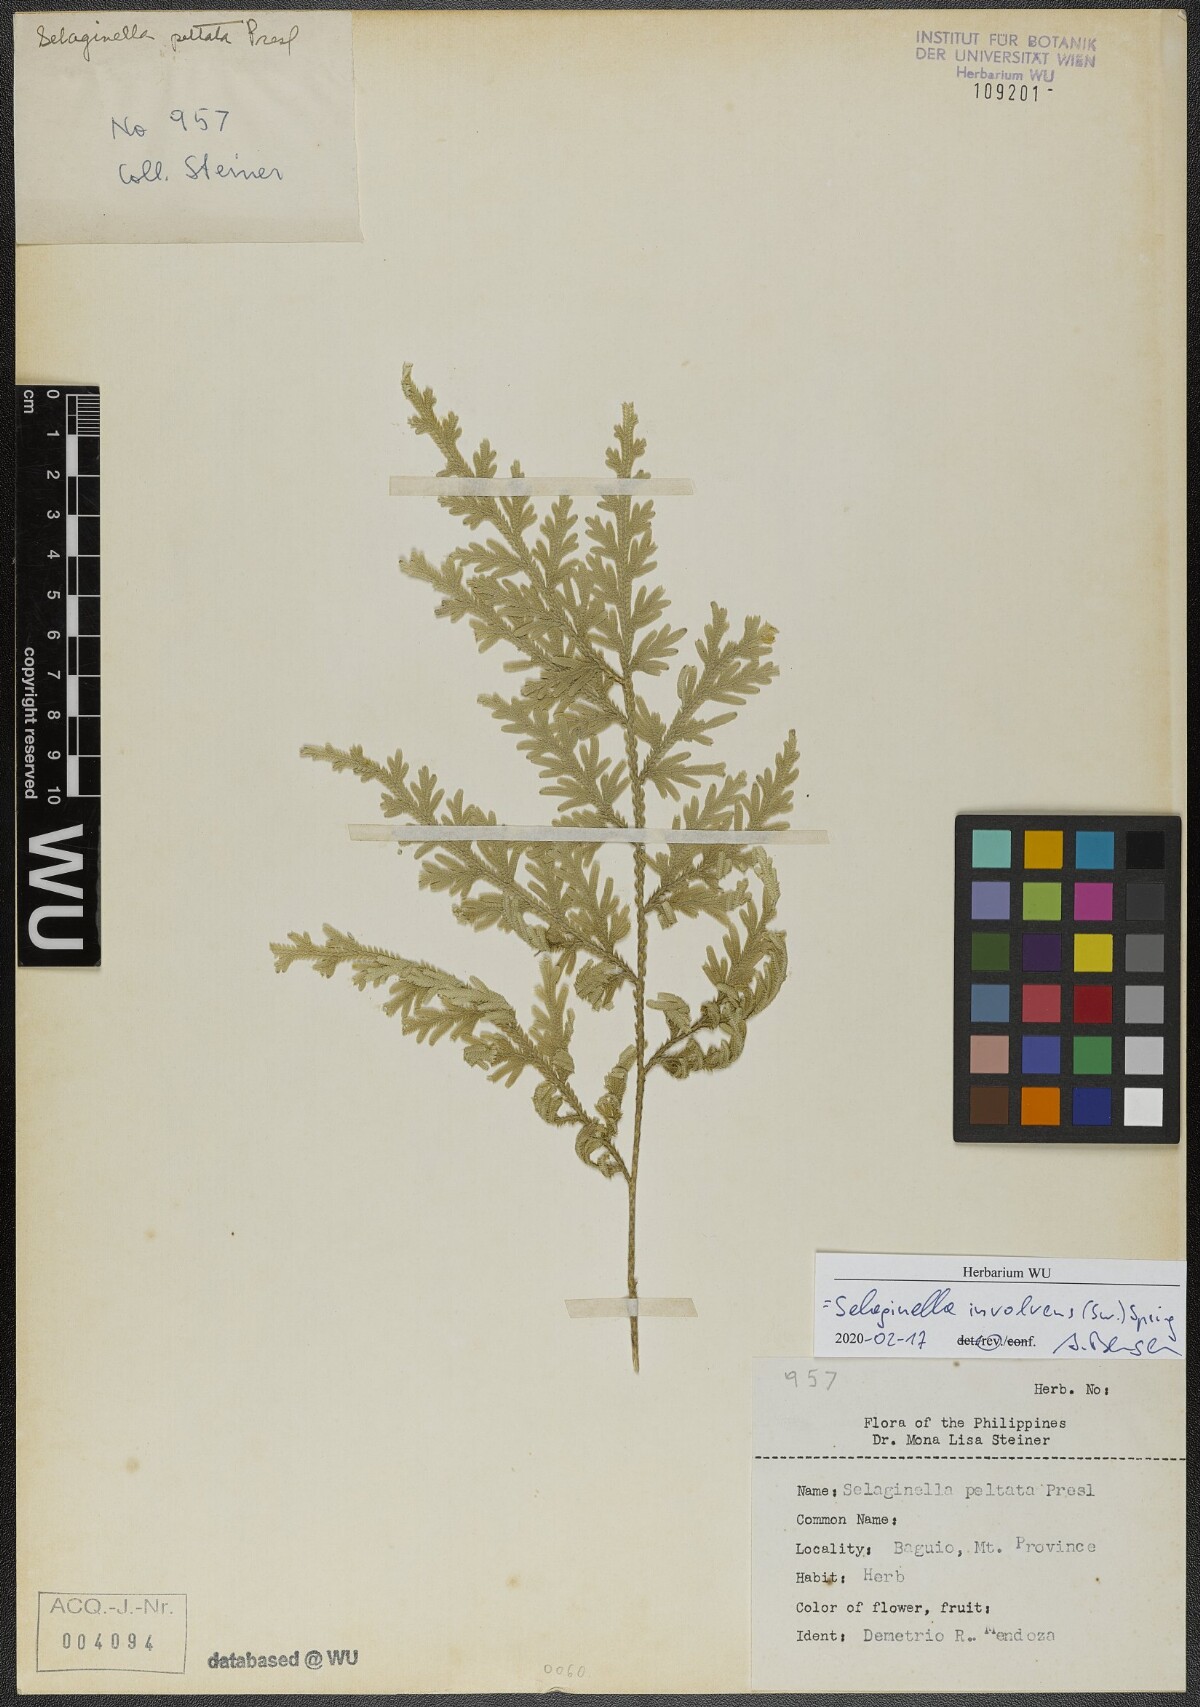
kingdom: Plantae
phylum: Tracheophyta
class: Lycopodiopsida
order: Selaginellales
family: Selaginellaceae
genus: Selaginella
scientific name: Selaginella involvens
